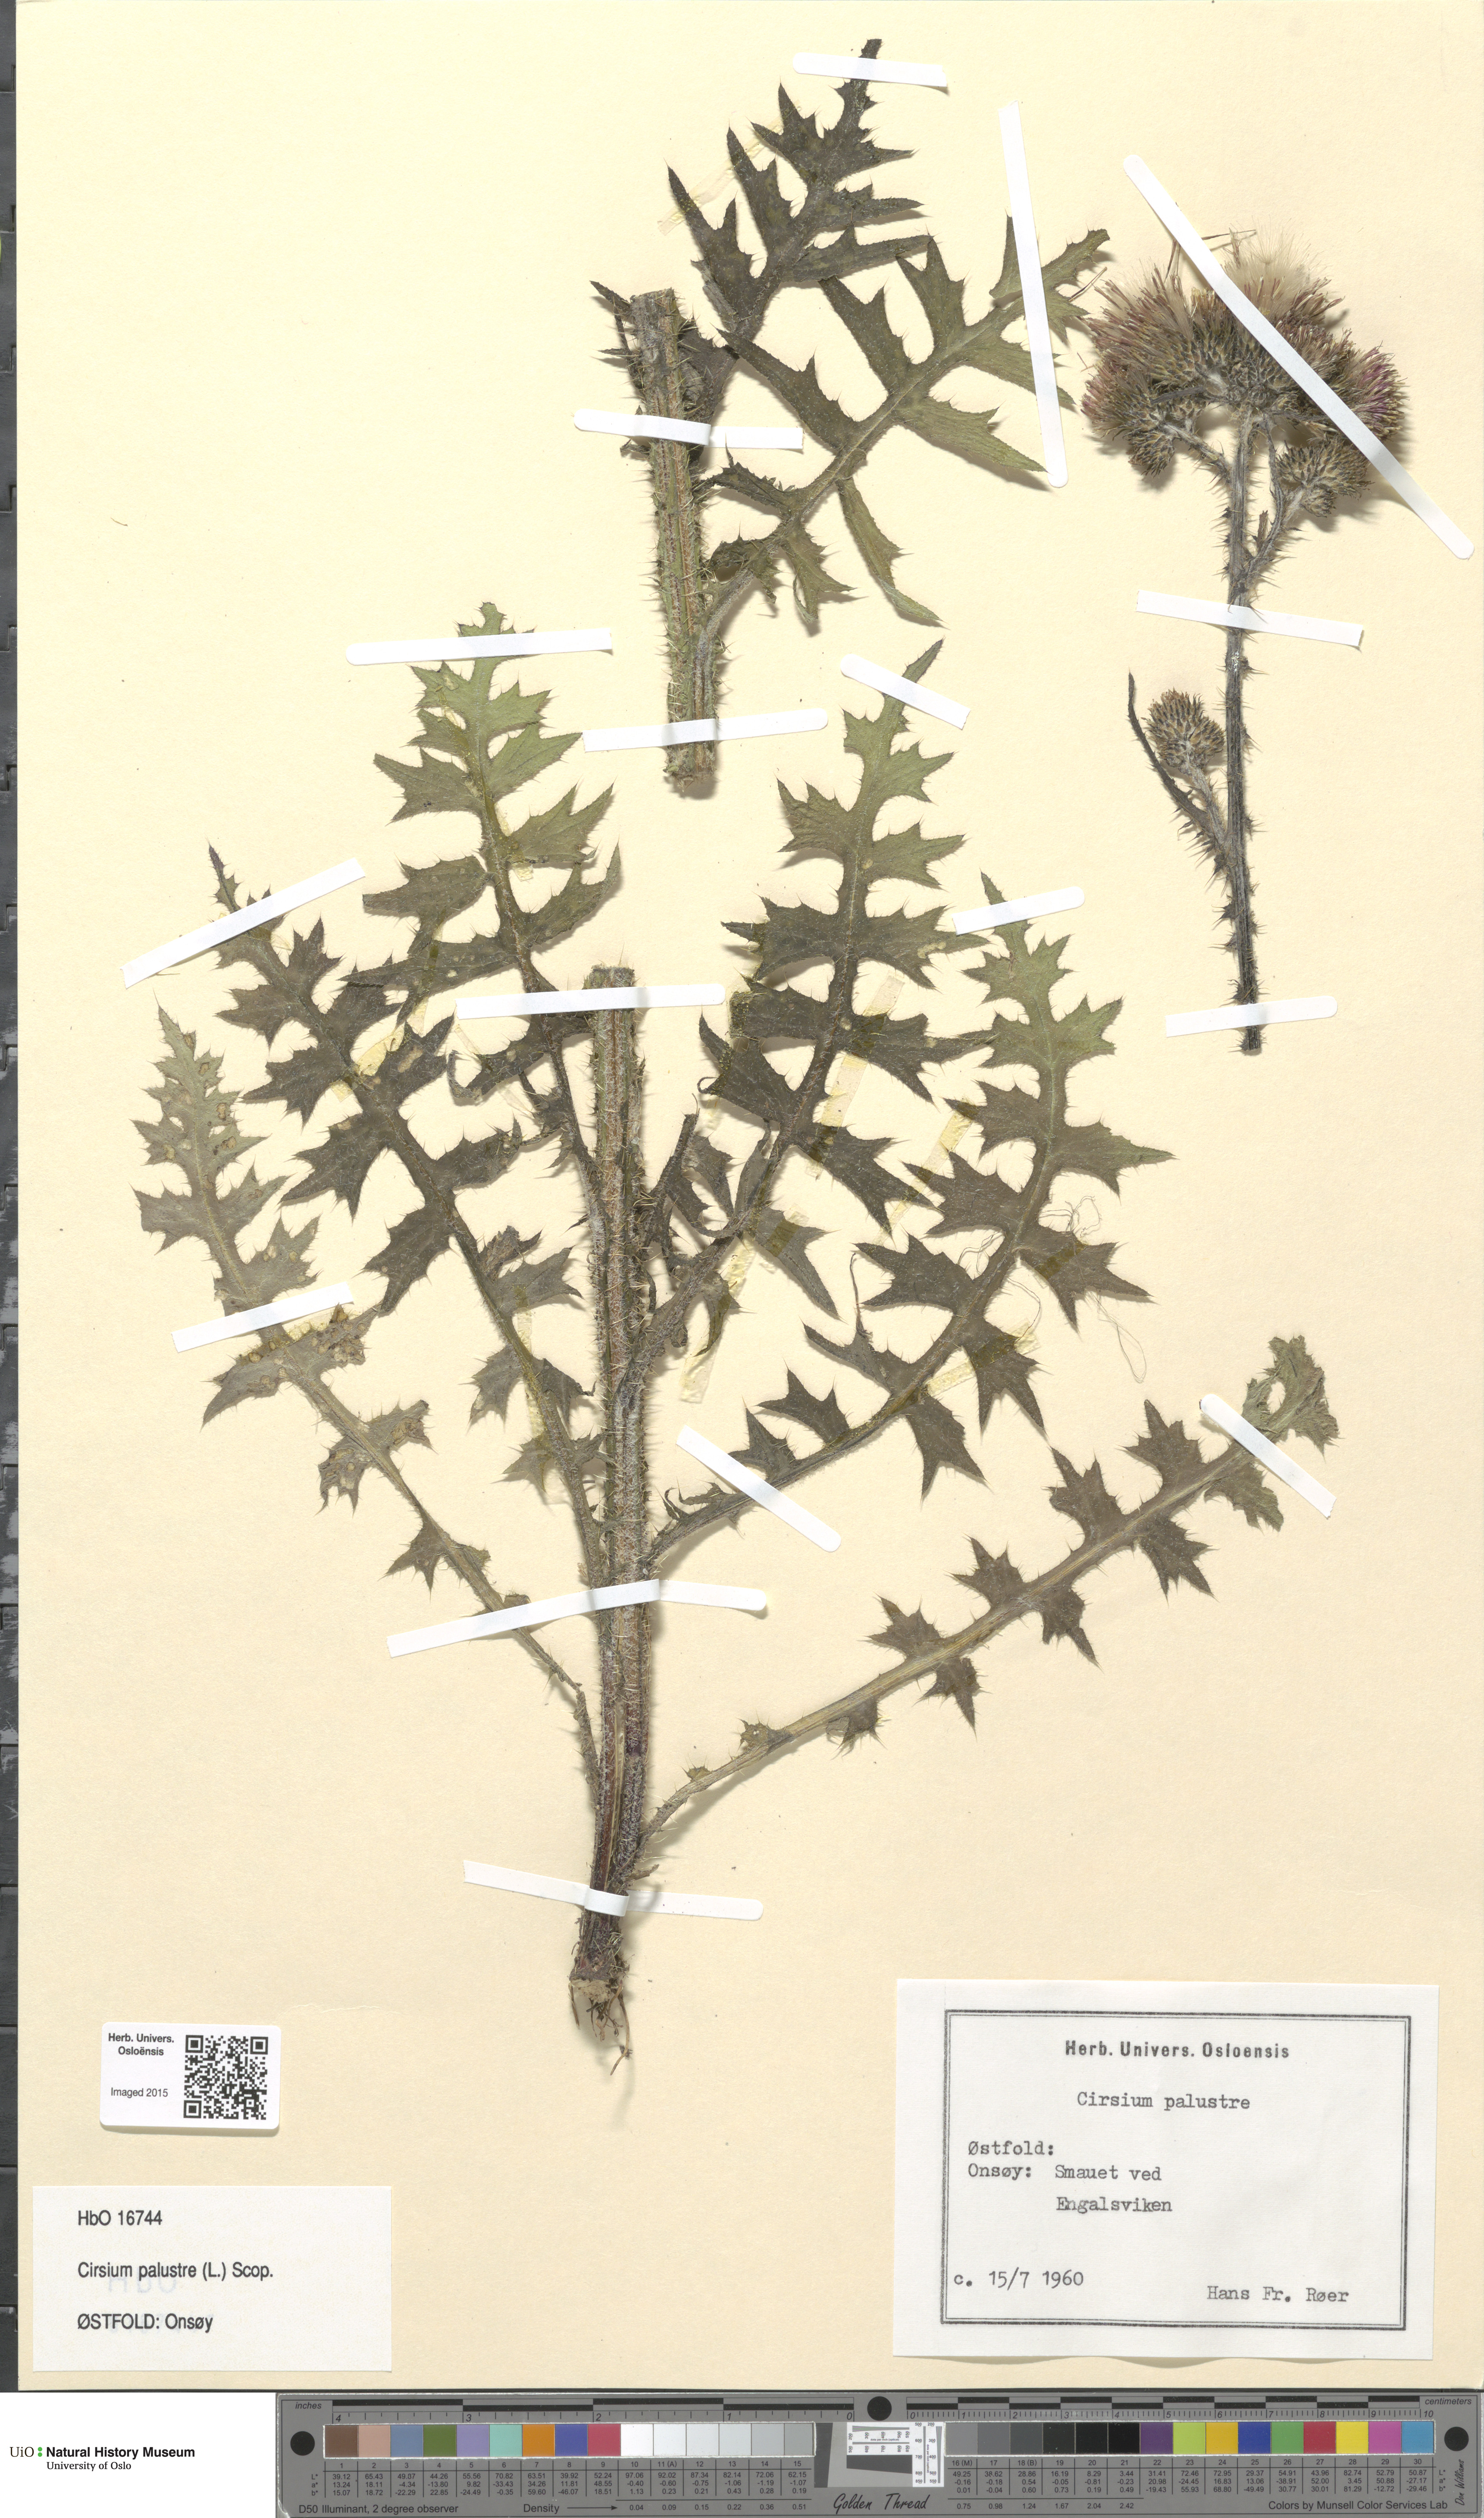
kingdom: Plantae
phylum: Tracheophyta
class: Magnoliopsida
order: Asterales
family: Asteraceae
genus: Cirsium
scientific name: Cirsium palustre
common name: Marsh thistle
